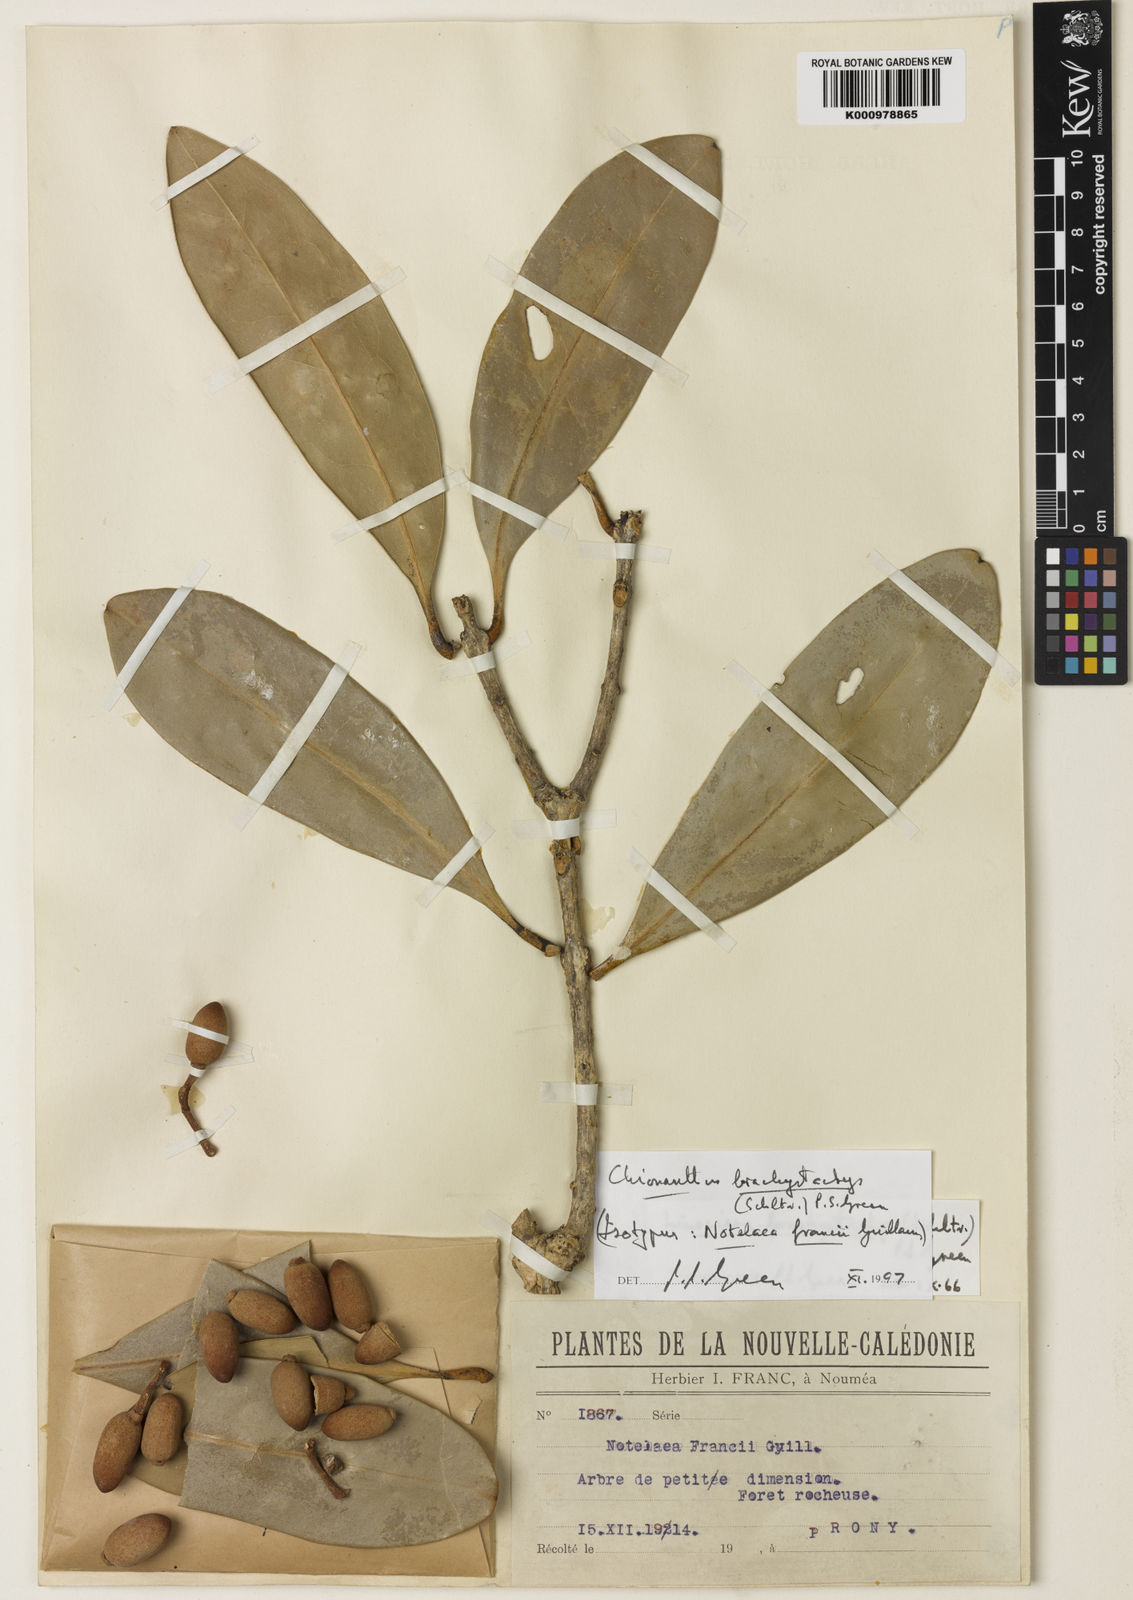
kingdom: Plantae
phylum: Tracheophyta
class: Magnoliopsida
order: Lamiales
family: Oleaceae
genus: Chionanthus
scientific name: Chionanthus brachystachys
